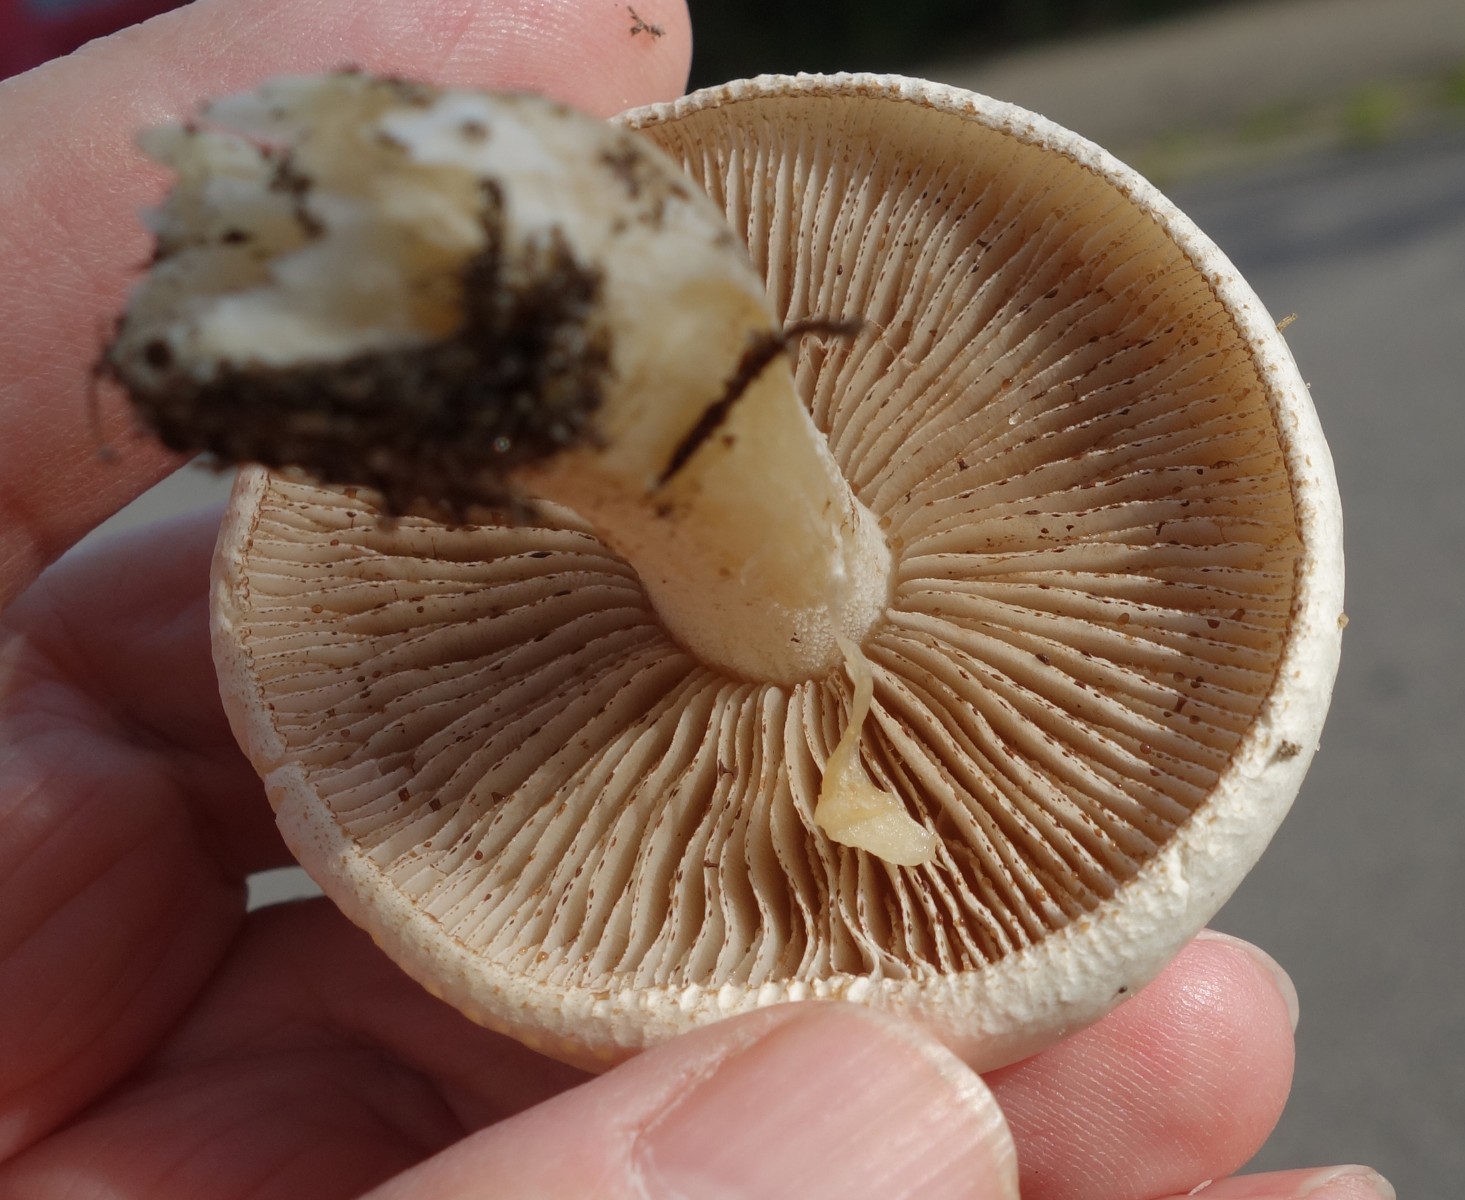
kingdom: Fungi
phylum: Basidiomycota
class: Agaricomycetes
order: Agaricales
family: Hymenogastraceae
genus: Hebeloma
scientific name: Hebeloma
